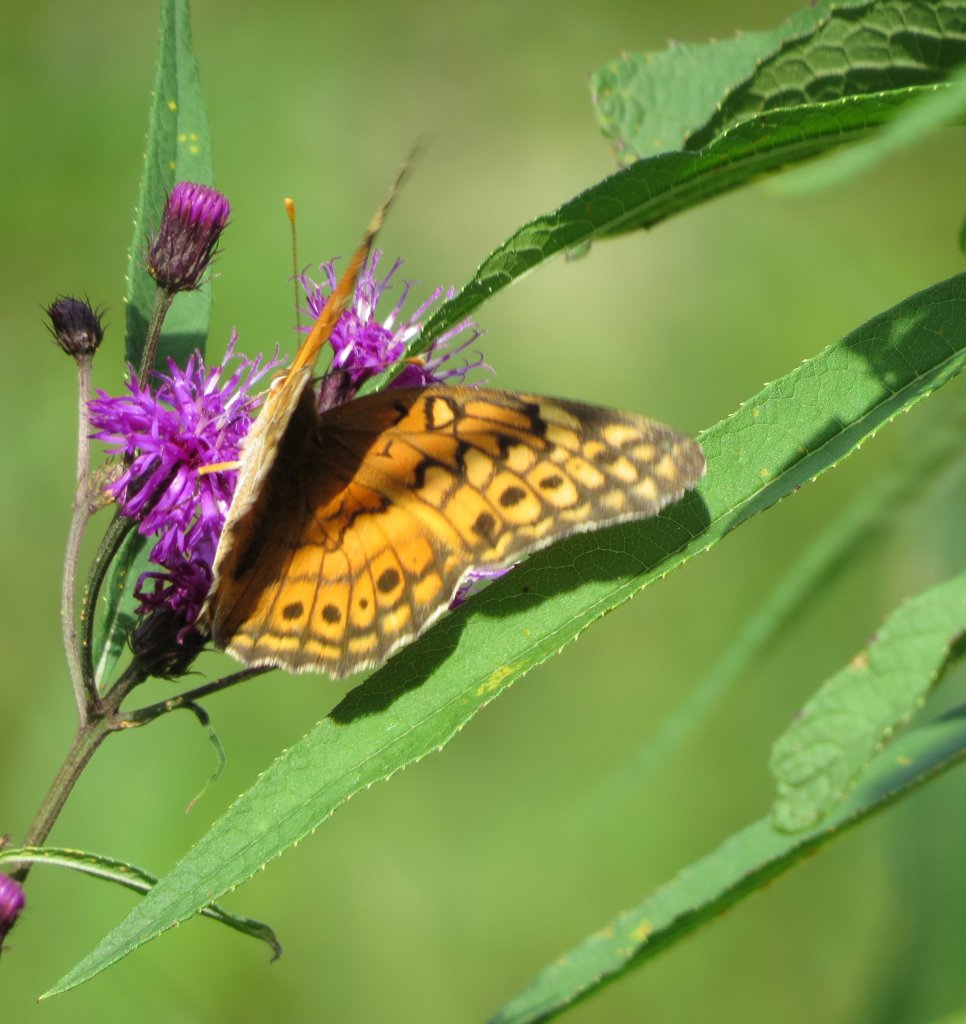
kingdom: Animalia
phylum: Arthropoda
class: Insecta
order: Lepidoptera
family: Nymphalidae
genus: Euptoieta
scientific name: Euptoieta claudia
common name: Variegated Fritillary
